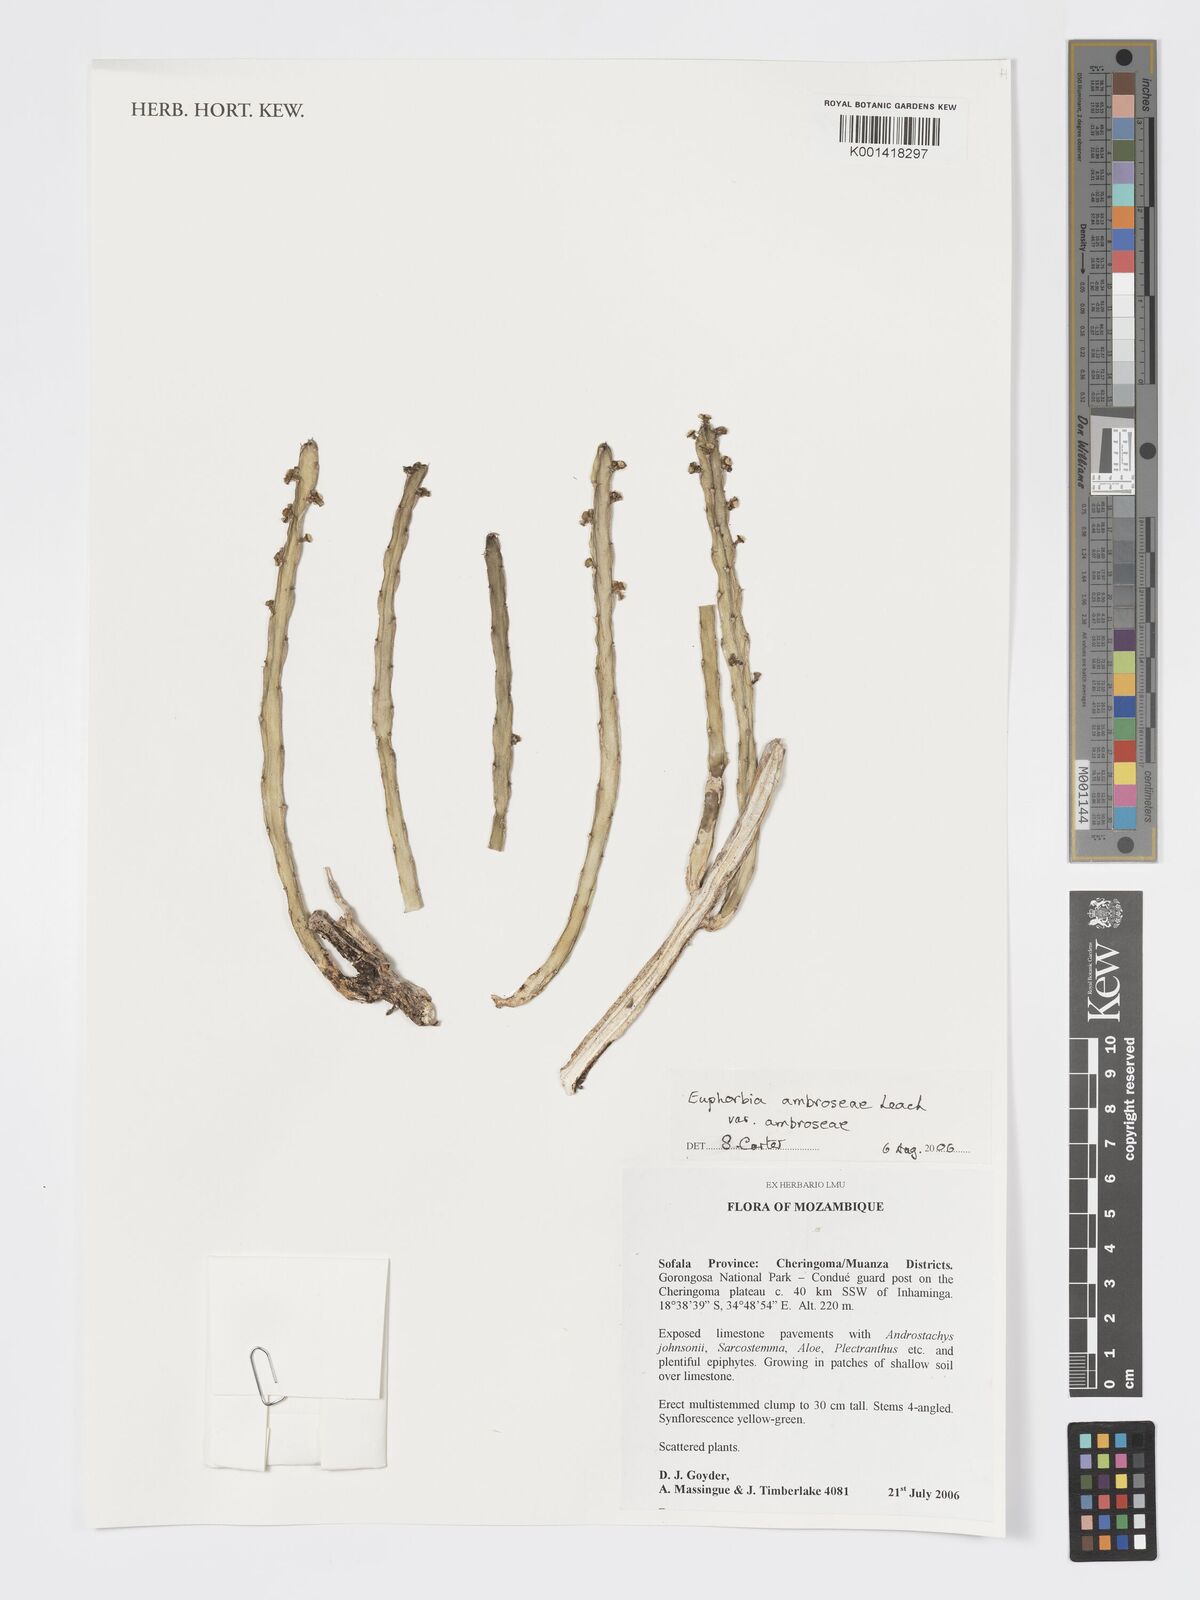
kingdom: Plantae
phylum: Tracheophyta
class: Magnoliopsida
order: Malpighiales
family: Euphorbiaceae
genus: Euphorbia
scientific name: Euphorbia ambroseae
